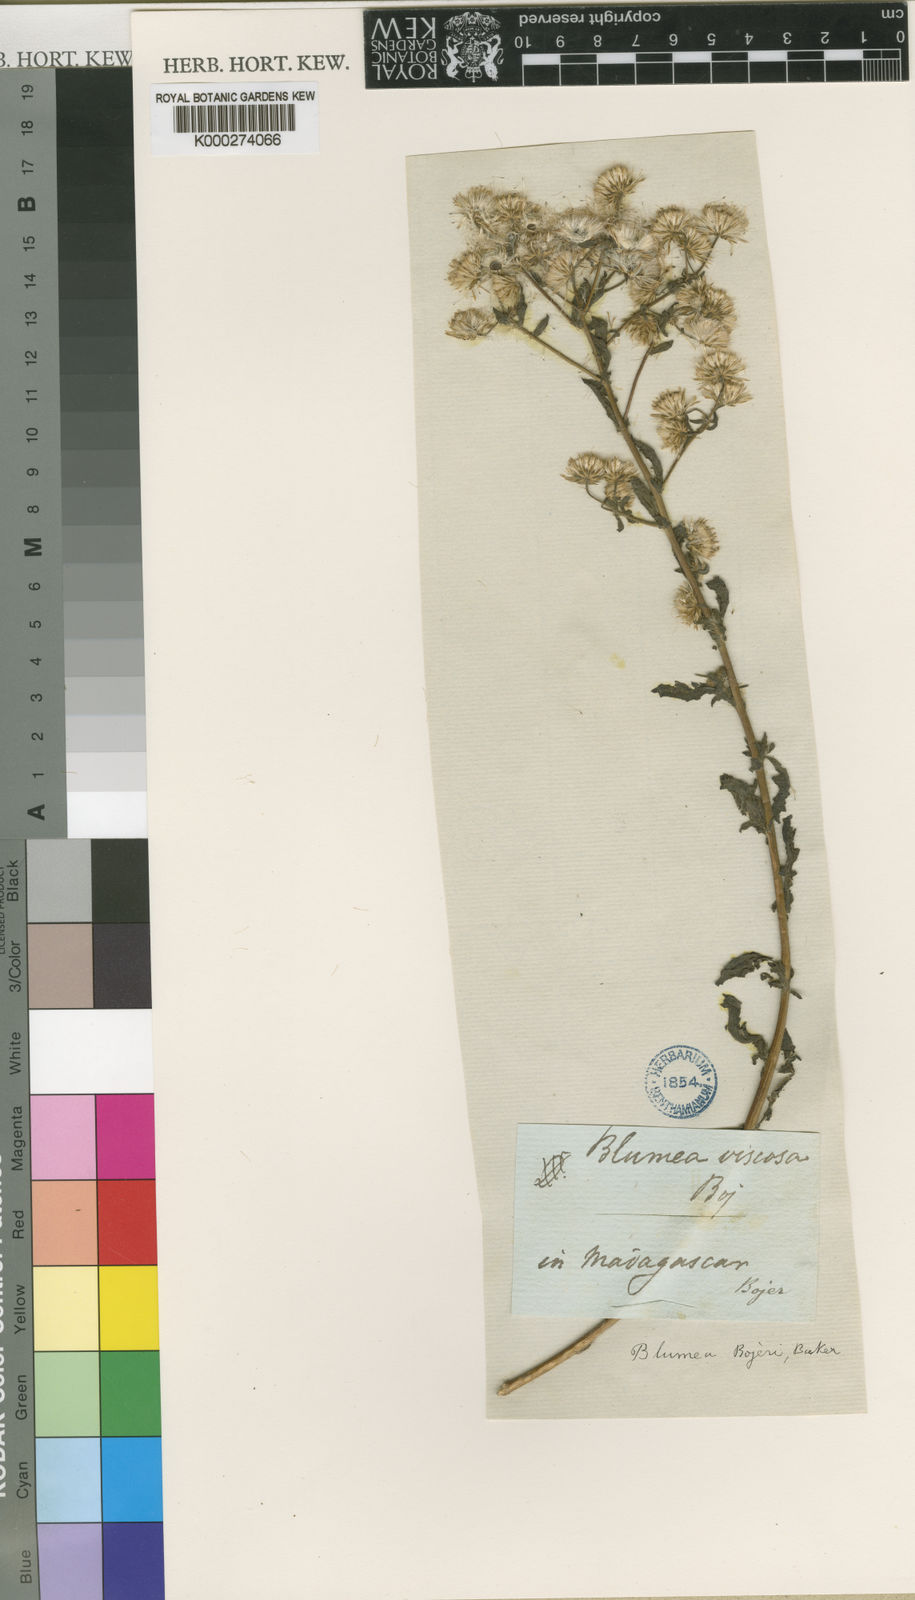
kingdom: Plantae
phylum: Tracheophyta
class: Magnoliopsida
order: Asterales
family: Asteraceae
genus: Pseudoconyza
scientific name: Pseudoconyza viscosa
